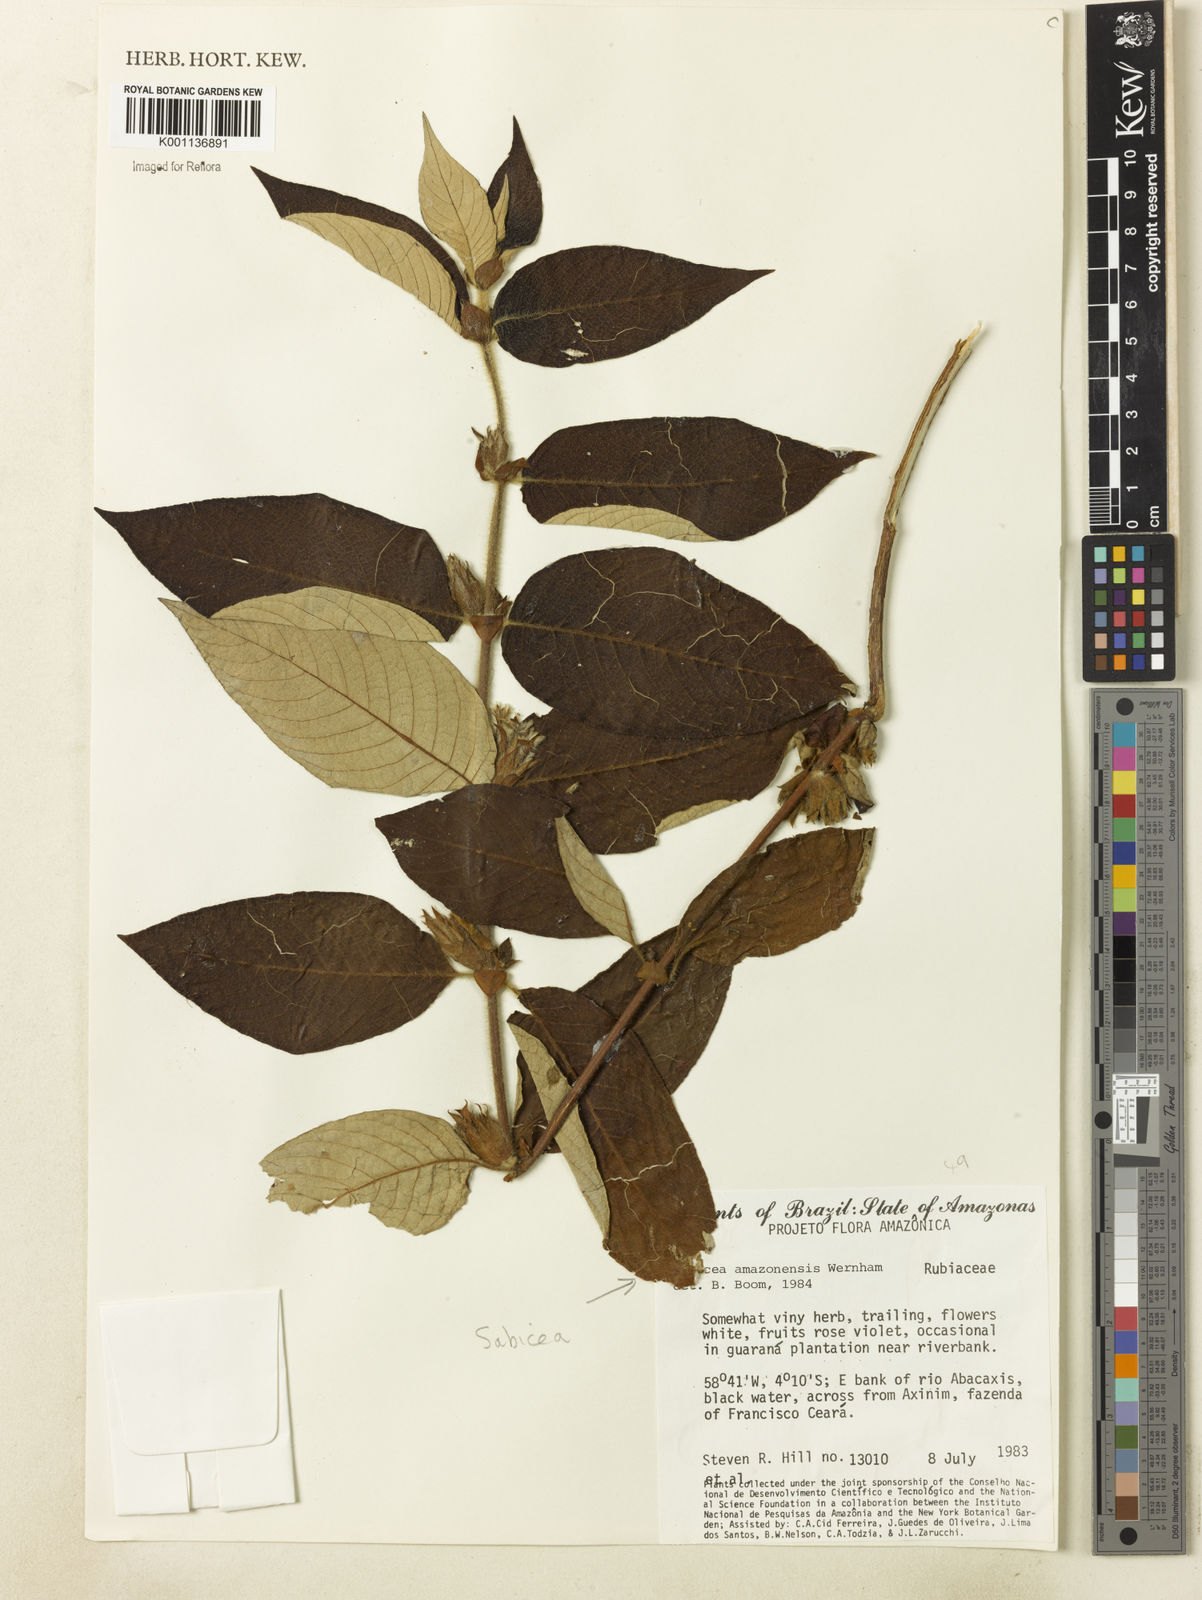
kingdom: Plantae
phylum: Tracheophyta
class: Magnoliopsida
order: Gentianales
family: Rubiaceae
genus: Sabicea
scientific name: Sabicea amazonensis
